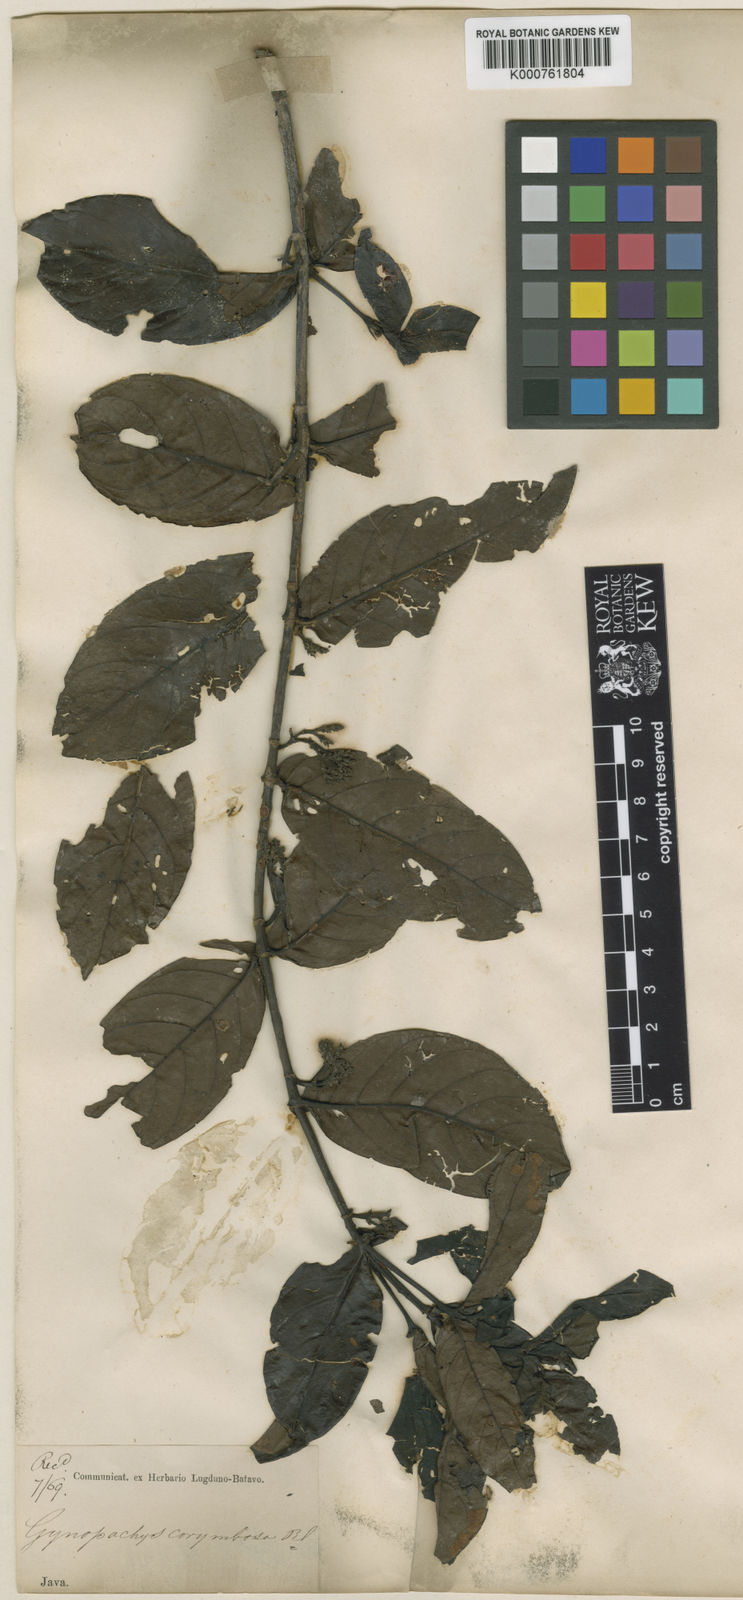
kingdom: Plantae
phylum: Tracheophyta
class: Magnoliopsida
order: Gentianales
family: Rubiaceae
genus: Aidia
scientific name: Aidia corymbosa
